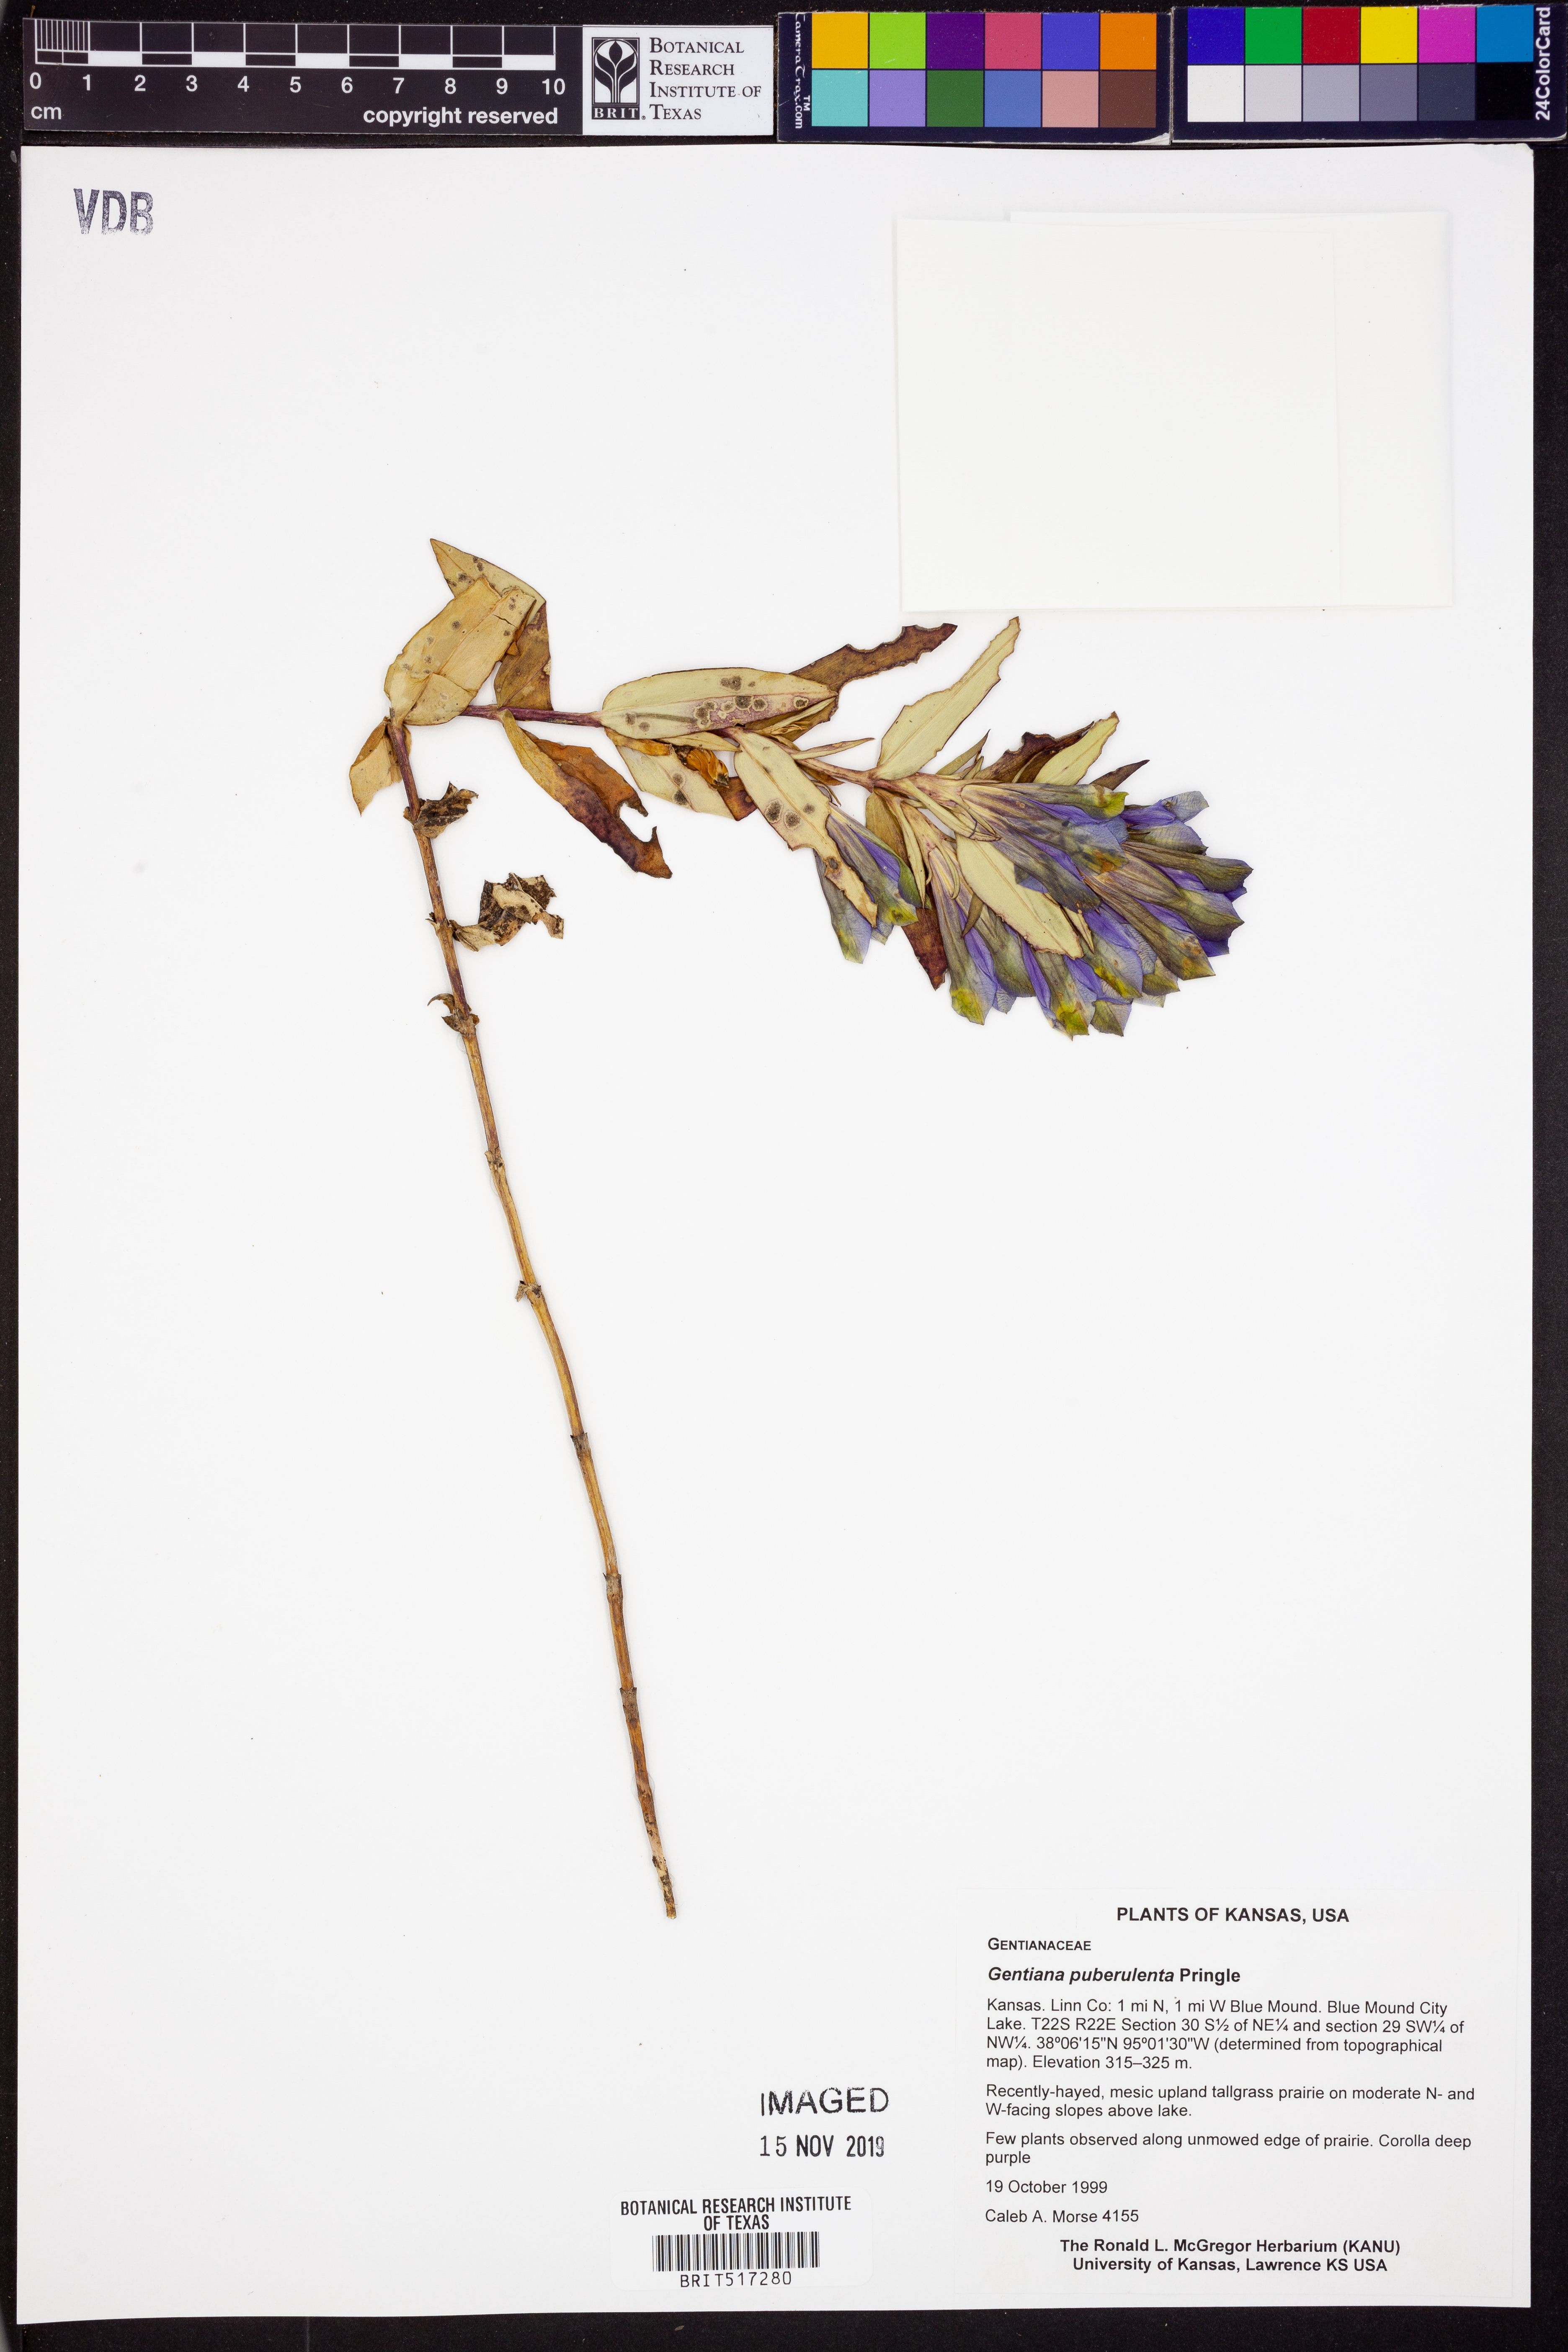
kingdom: Plantae
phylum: Tracheophyta
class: Magnoliopsida
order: Gentianales
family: Gentianaceae
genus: Gentiana
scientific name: Gentiana puberulenta
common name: Downy gentian
